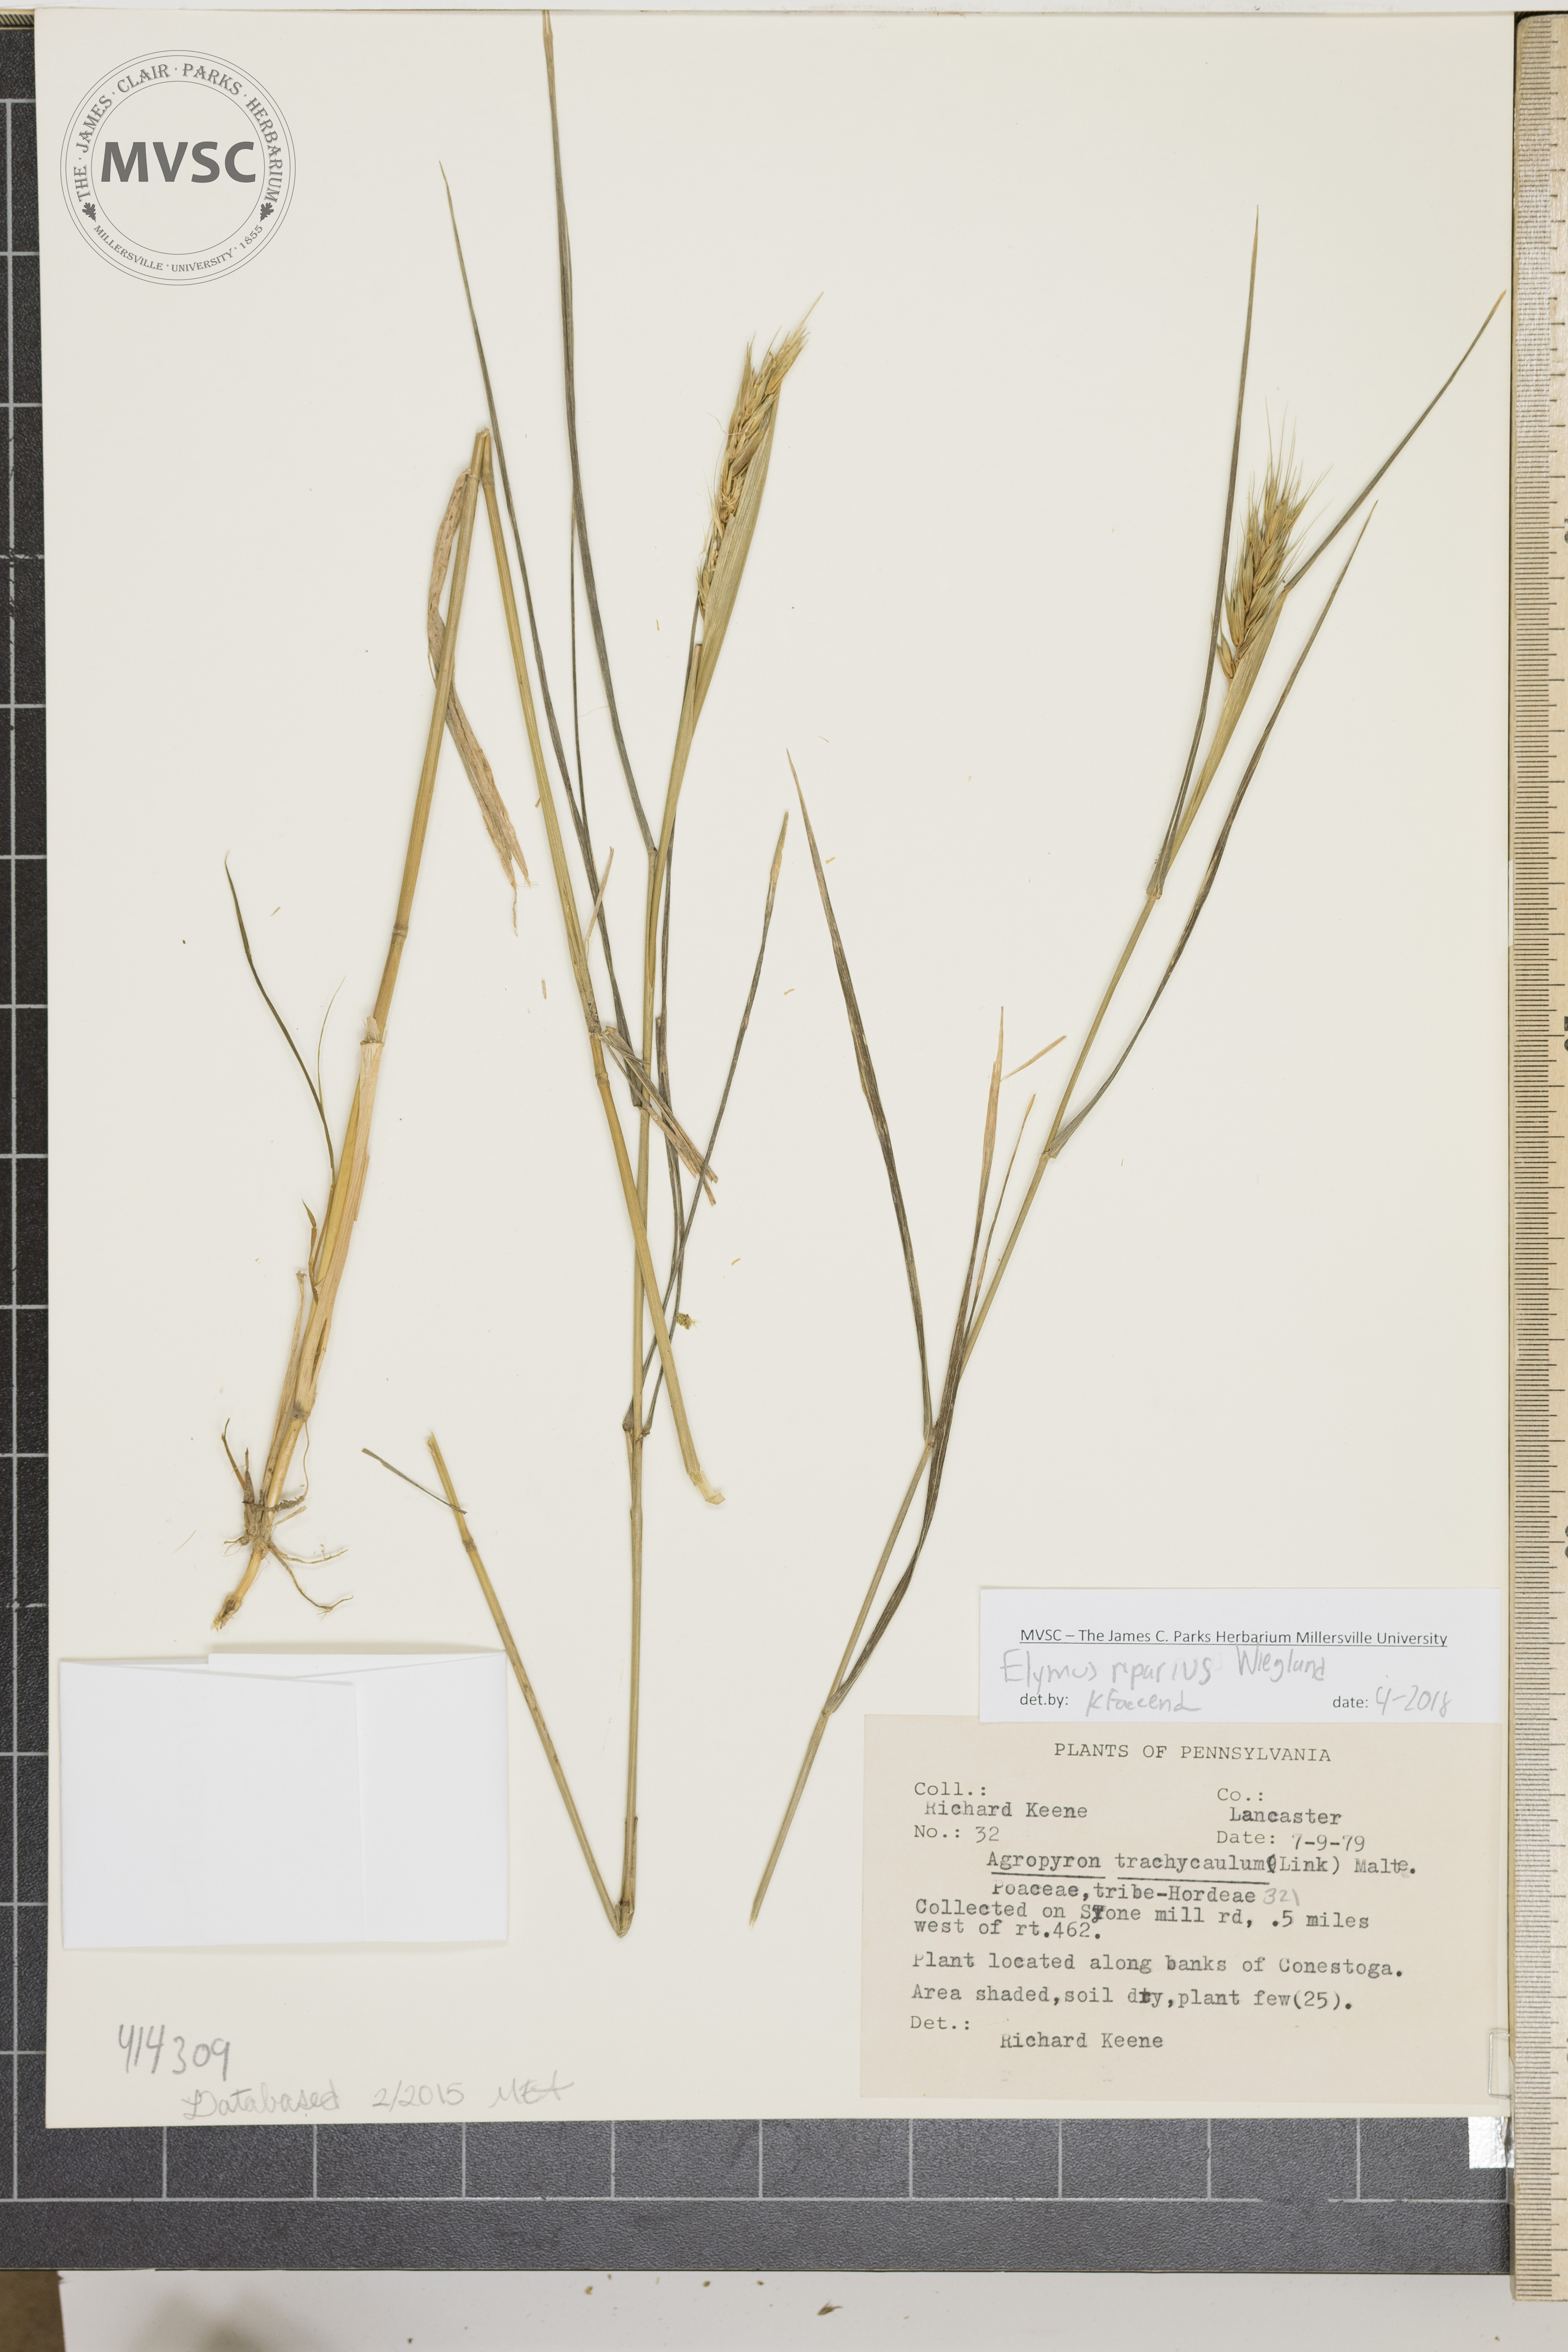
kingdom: Plantae
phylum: Tracheophyta
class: Liliopsida
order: Poales
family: Poaceae
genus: Elymus
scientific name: Elymus riparius
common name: Eastern riverbank wild rye
